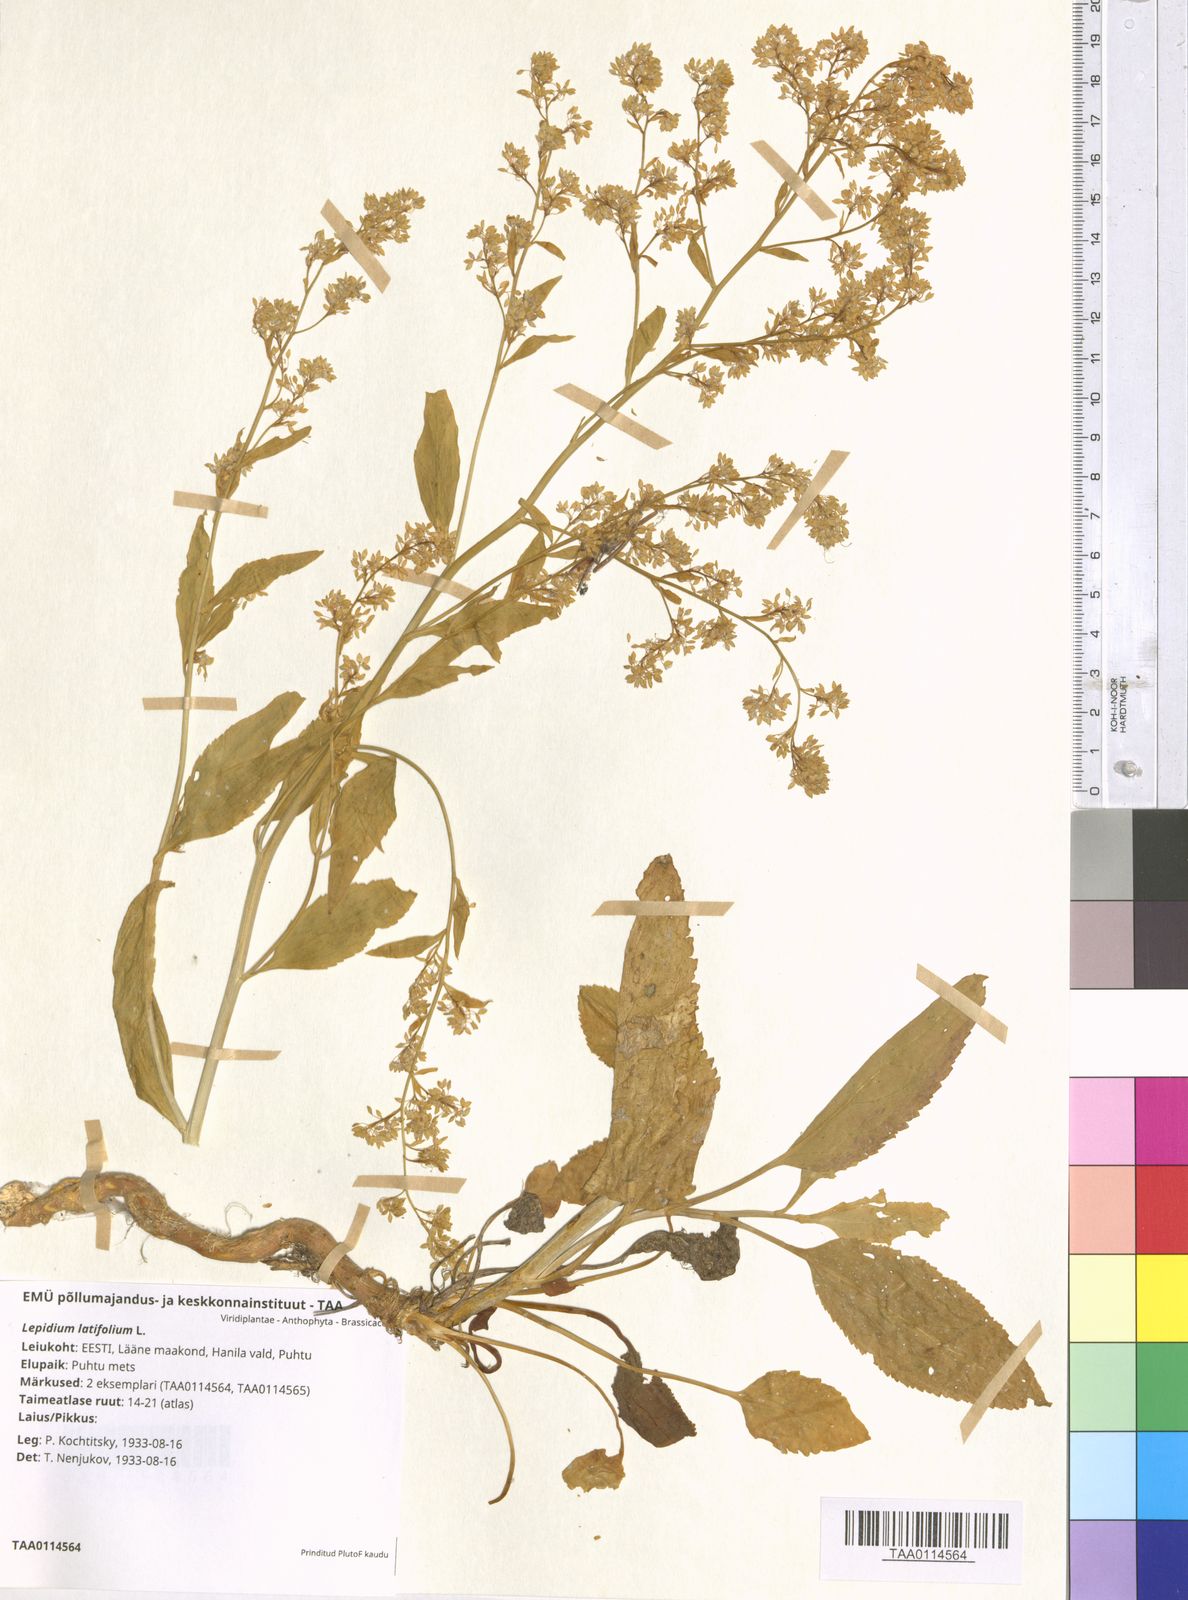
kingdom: Plantae
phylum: Tracheophyta
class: Magnoliopsida
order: Brassicales
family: Brassicaceae
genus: Lepidium
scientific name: Lepidium latifolium
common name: Dittander
